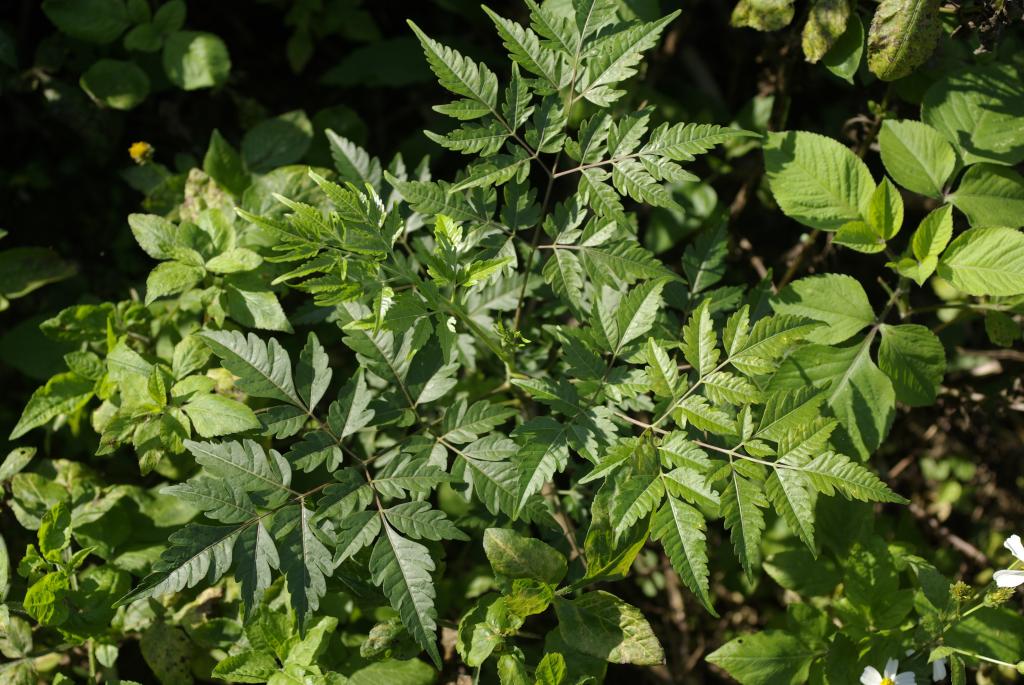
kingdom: Plantae
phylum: Tracheophyta
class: Magnoliopsida
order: Sapindales
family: Meliaceae
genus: Melia
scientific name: Melia azedarach
